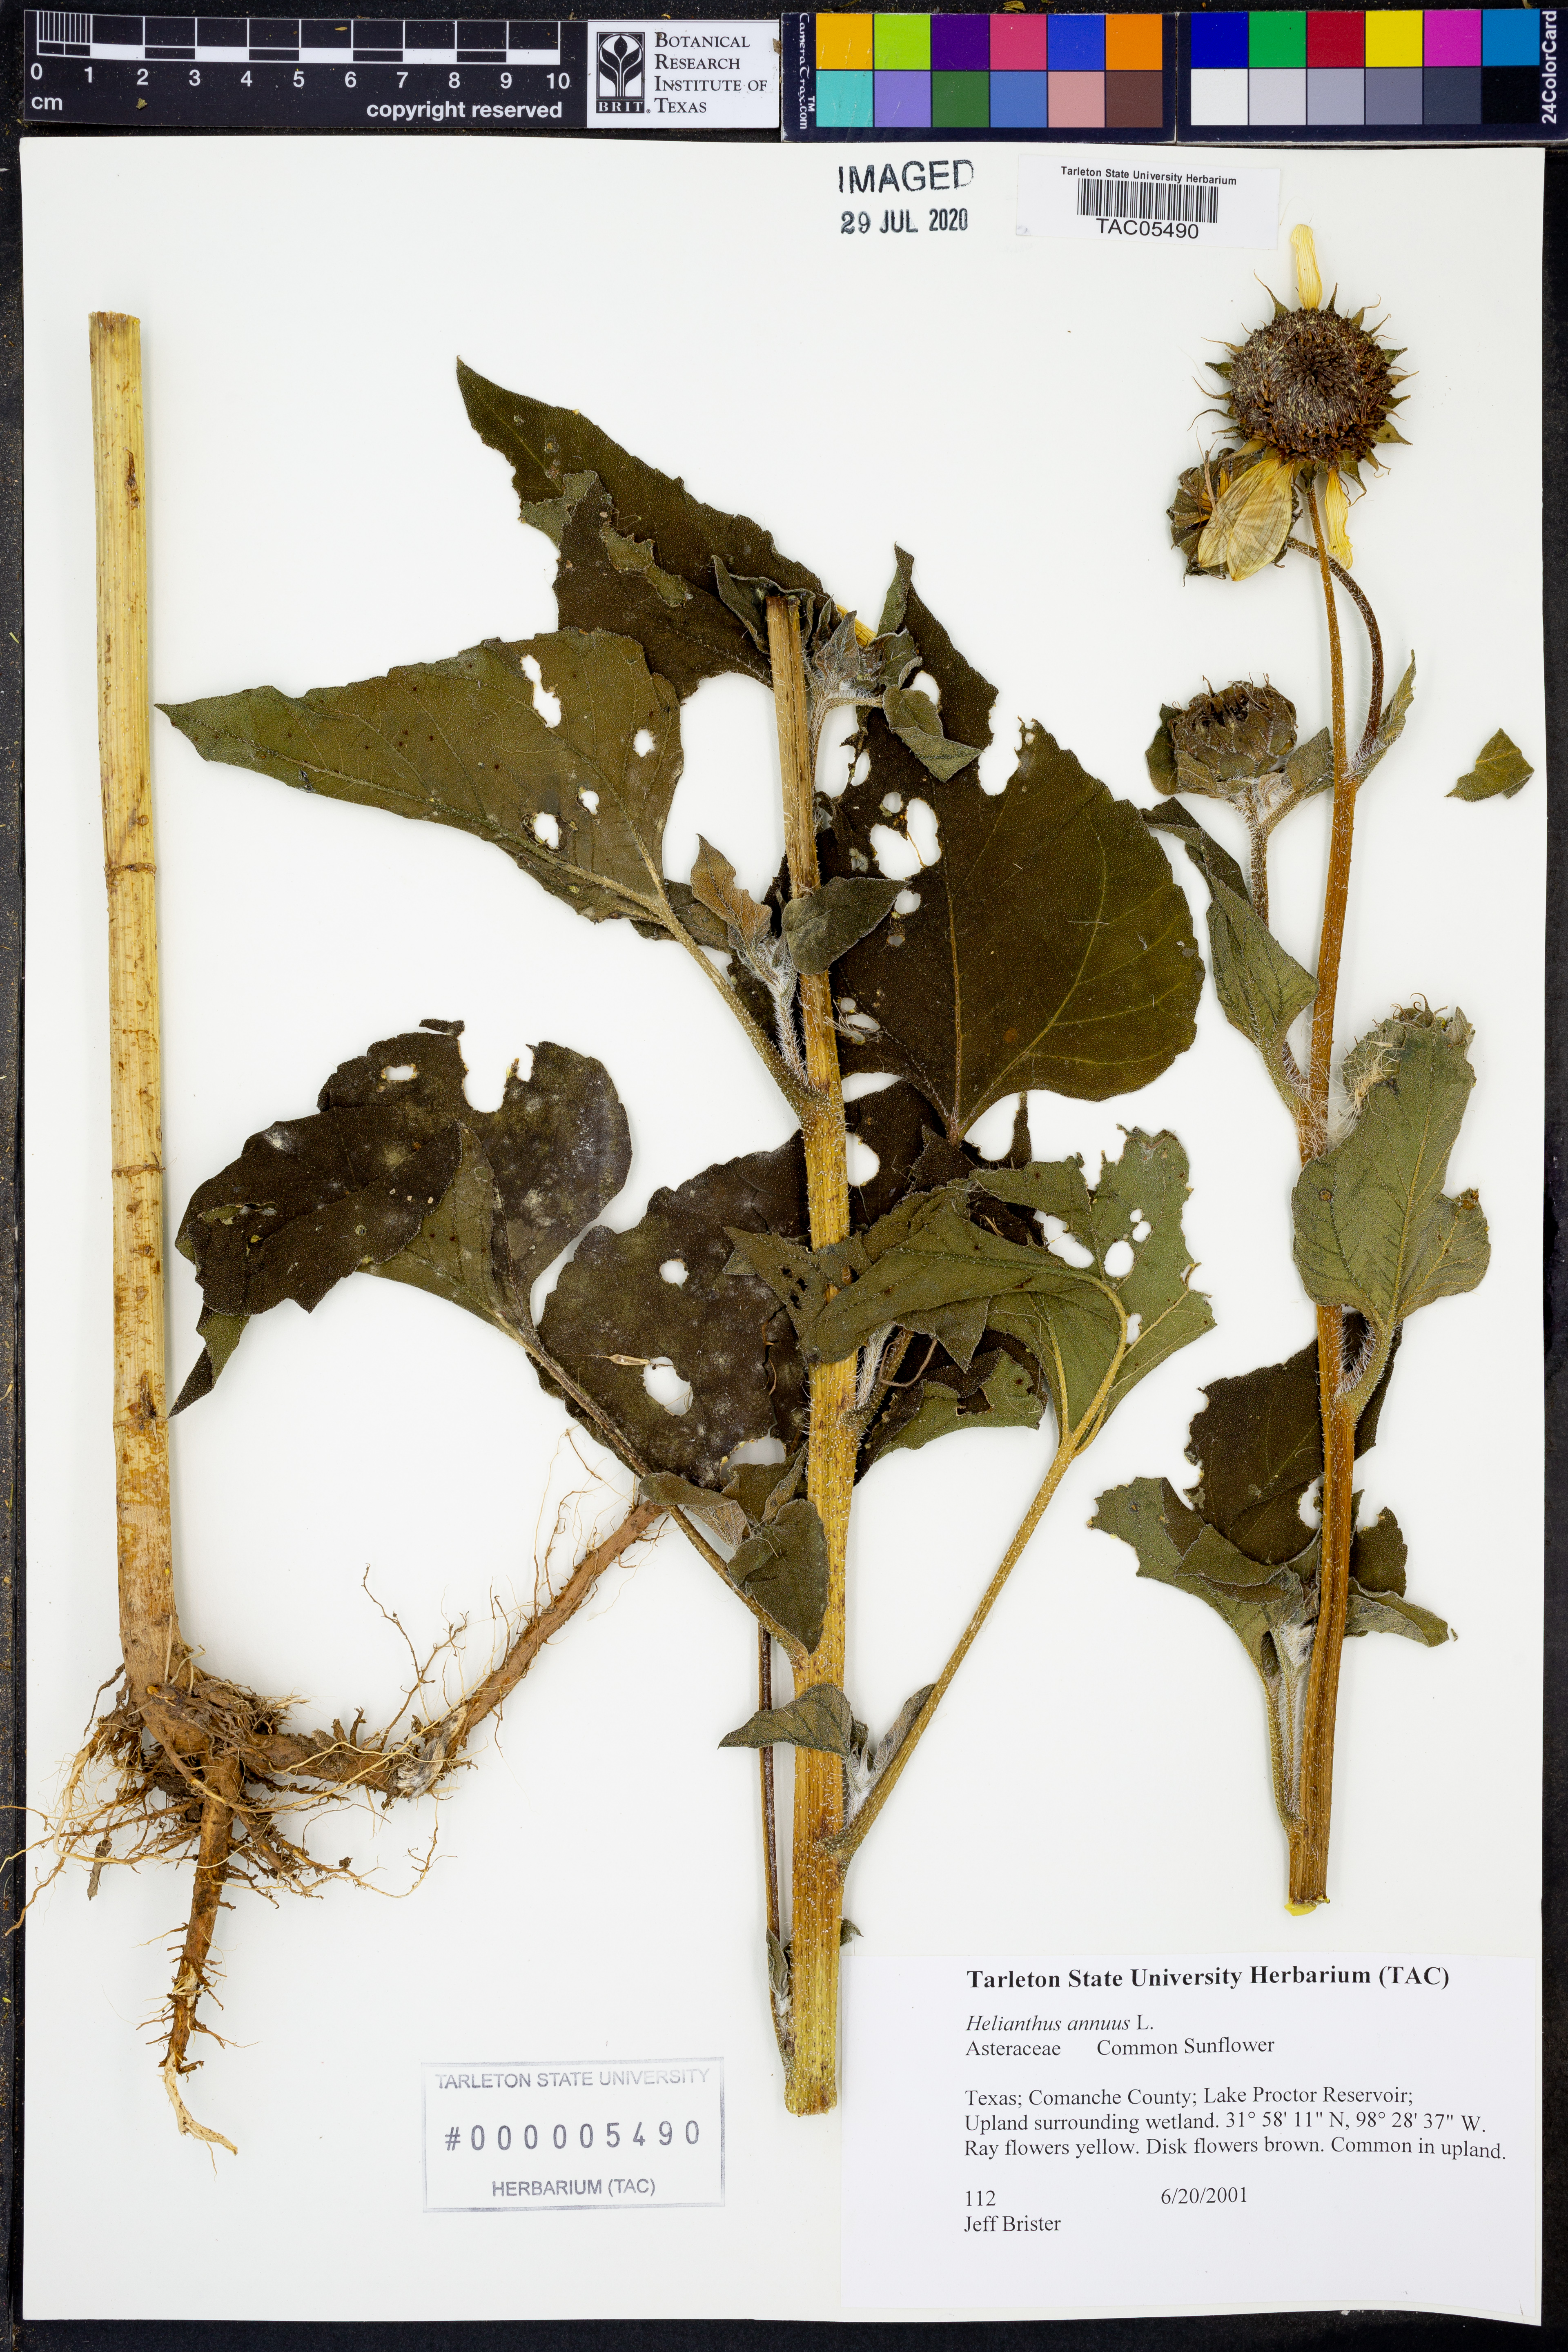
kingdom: Plantae
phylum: Tracheophyta
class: Magnoliopsida
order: Asterales
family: Asteraceae
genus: Helianthus
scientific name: Helianthus annuus
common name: Sunflower
